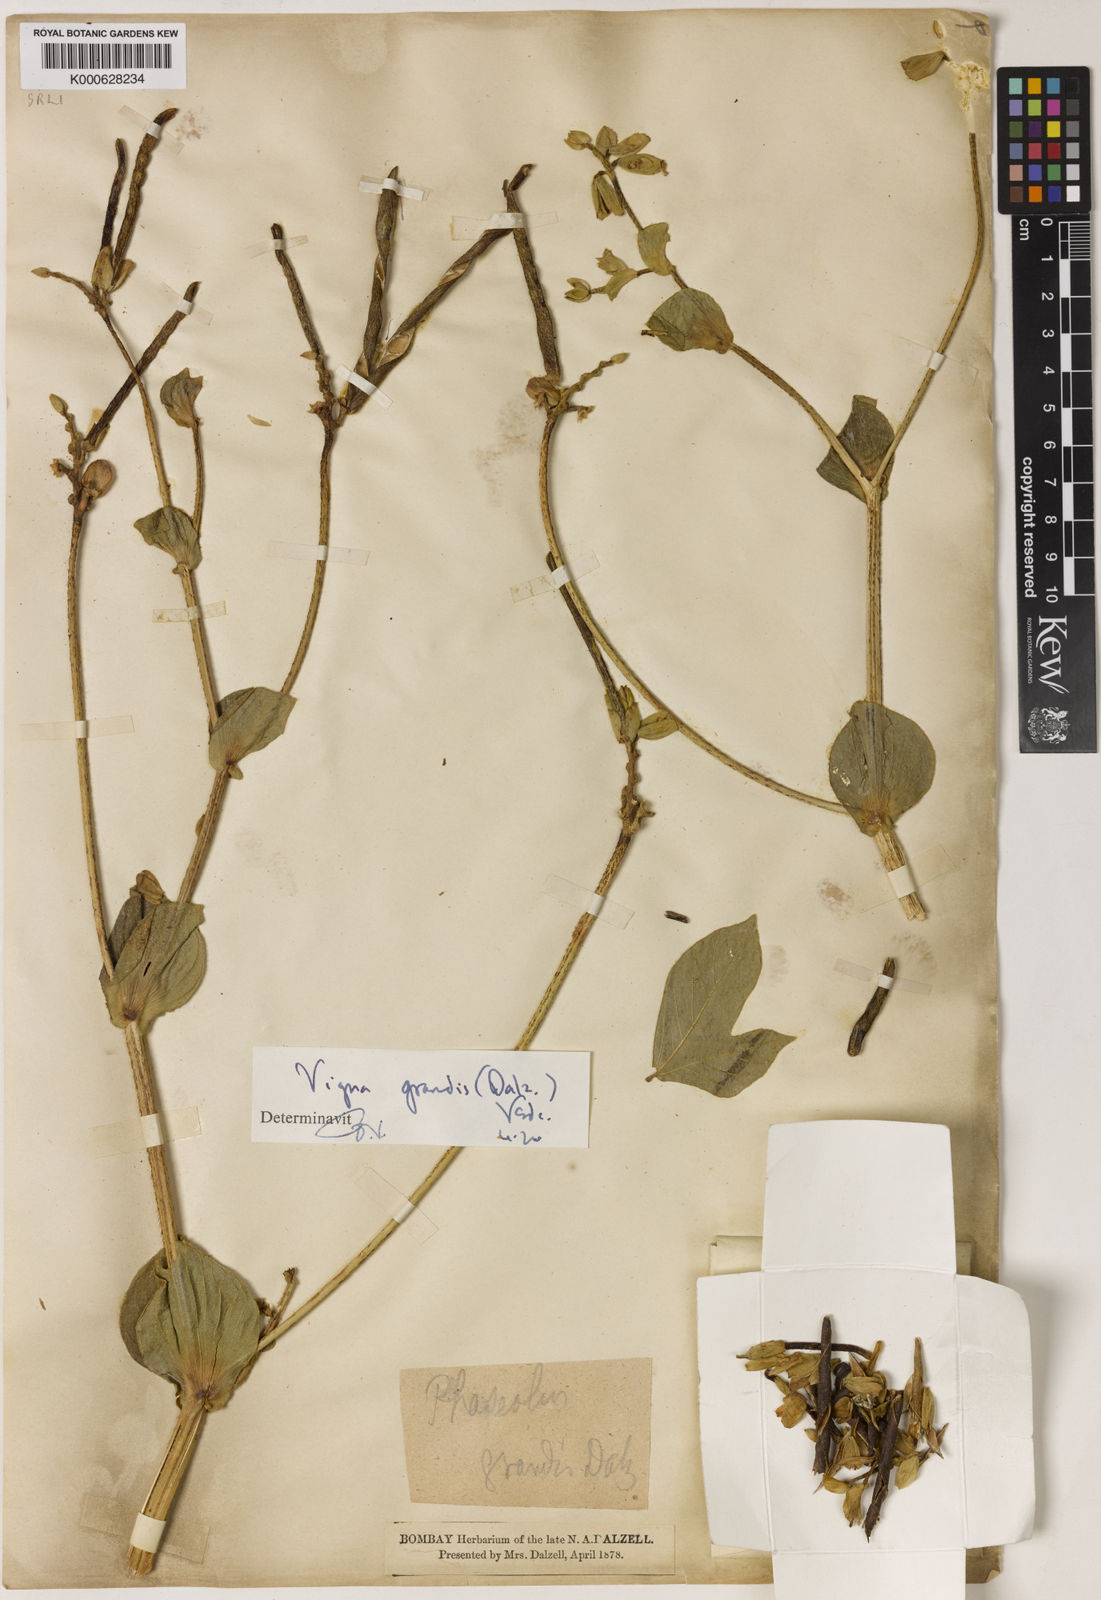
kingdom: Plantae
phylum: Tracheophyta
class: Magnoliopsida
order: Fabales
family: Fabaceae
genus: Vigna
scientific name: Vigna
